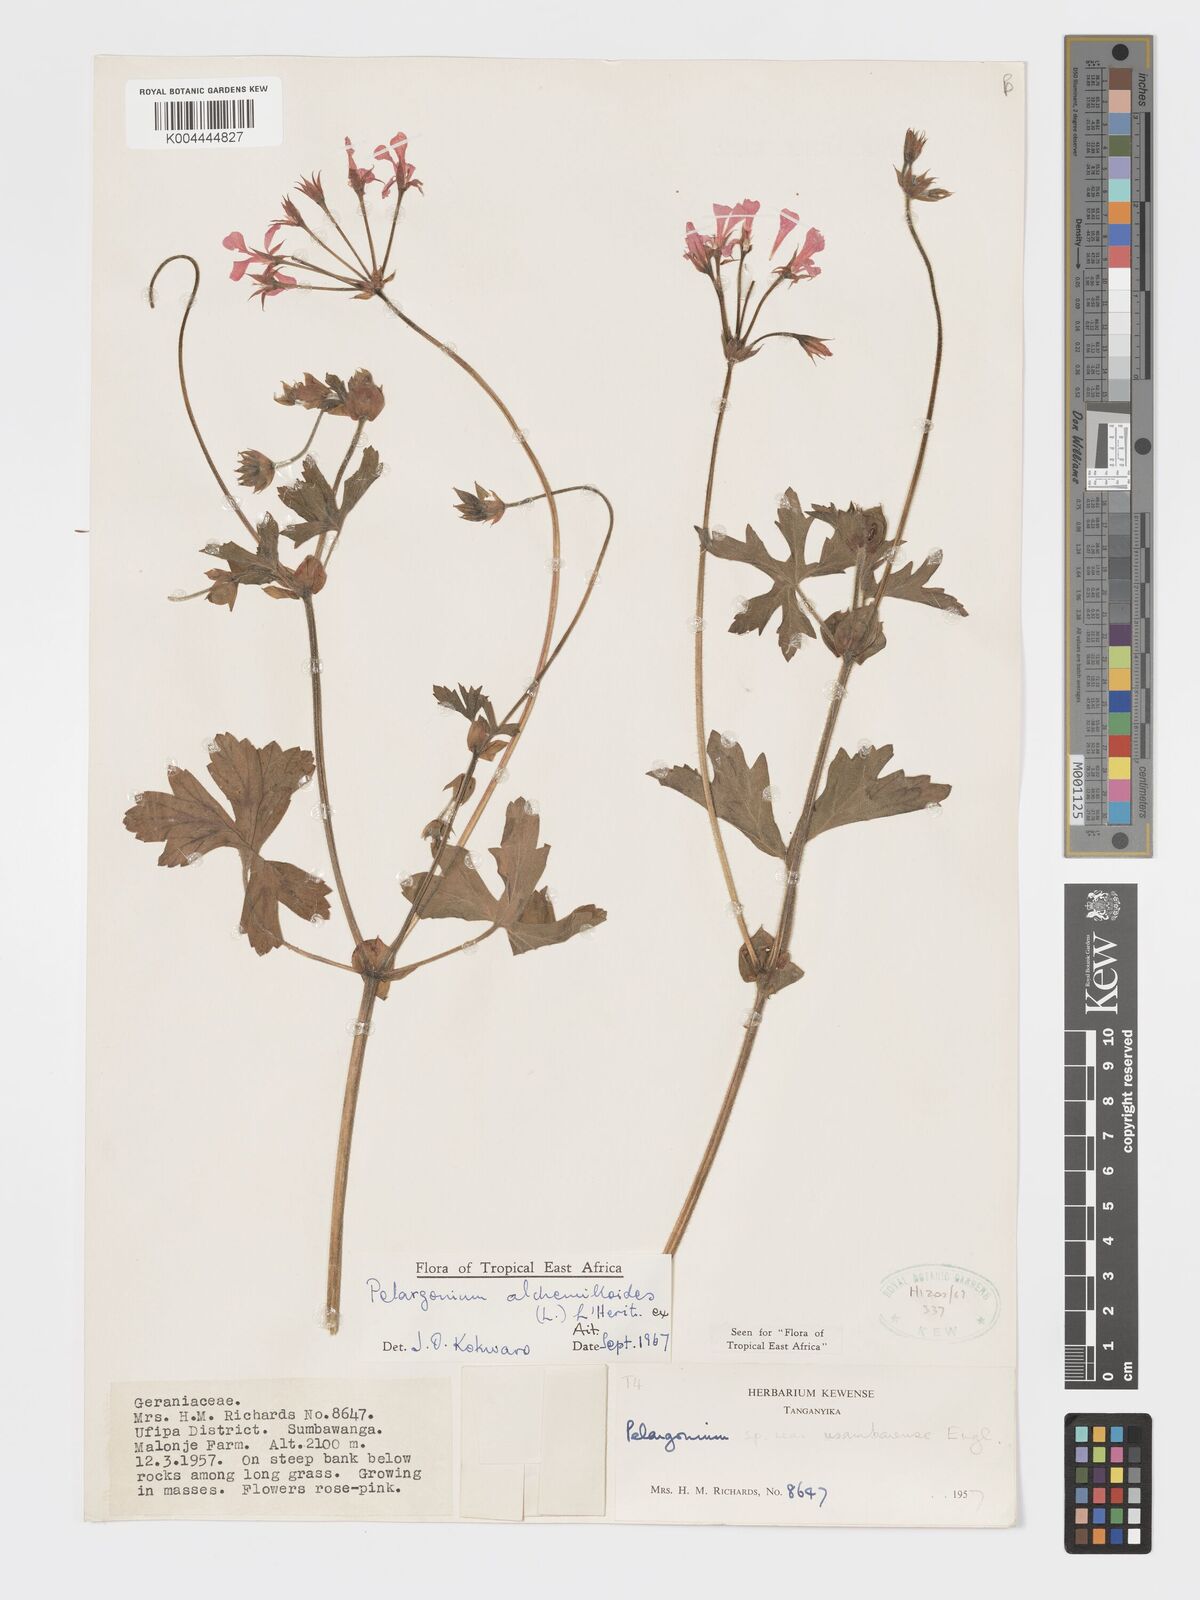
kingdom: Plantae
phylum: Tracheophyta
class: Magnoliopsida
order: Geraniales
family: Geraniaceae
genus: Pelargonium
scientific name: Pelargonium multibracteatum
